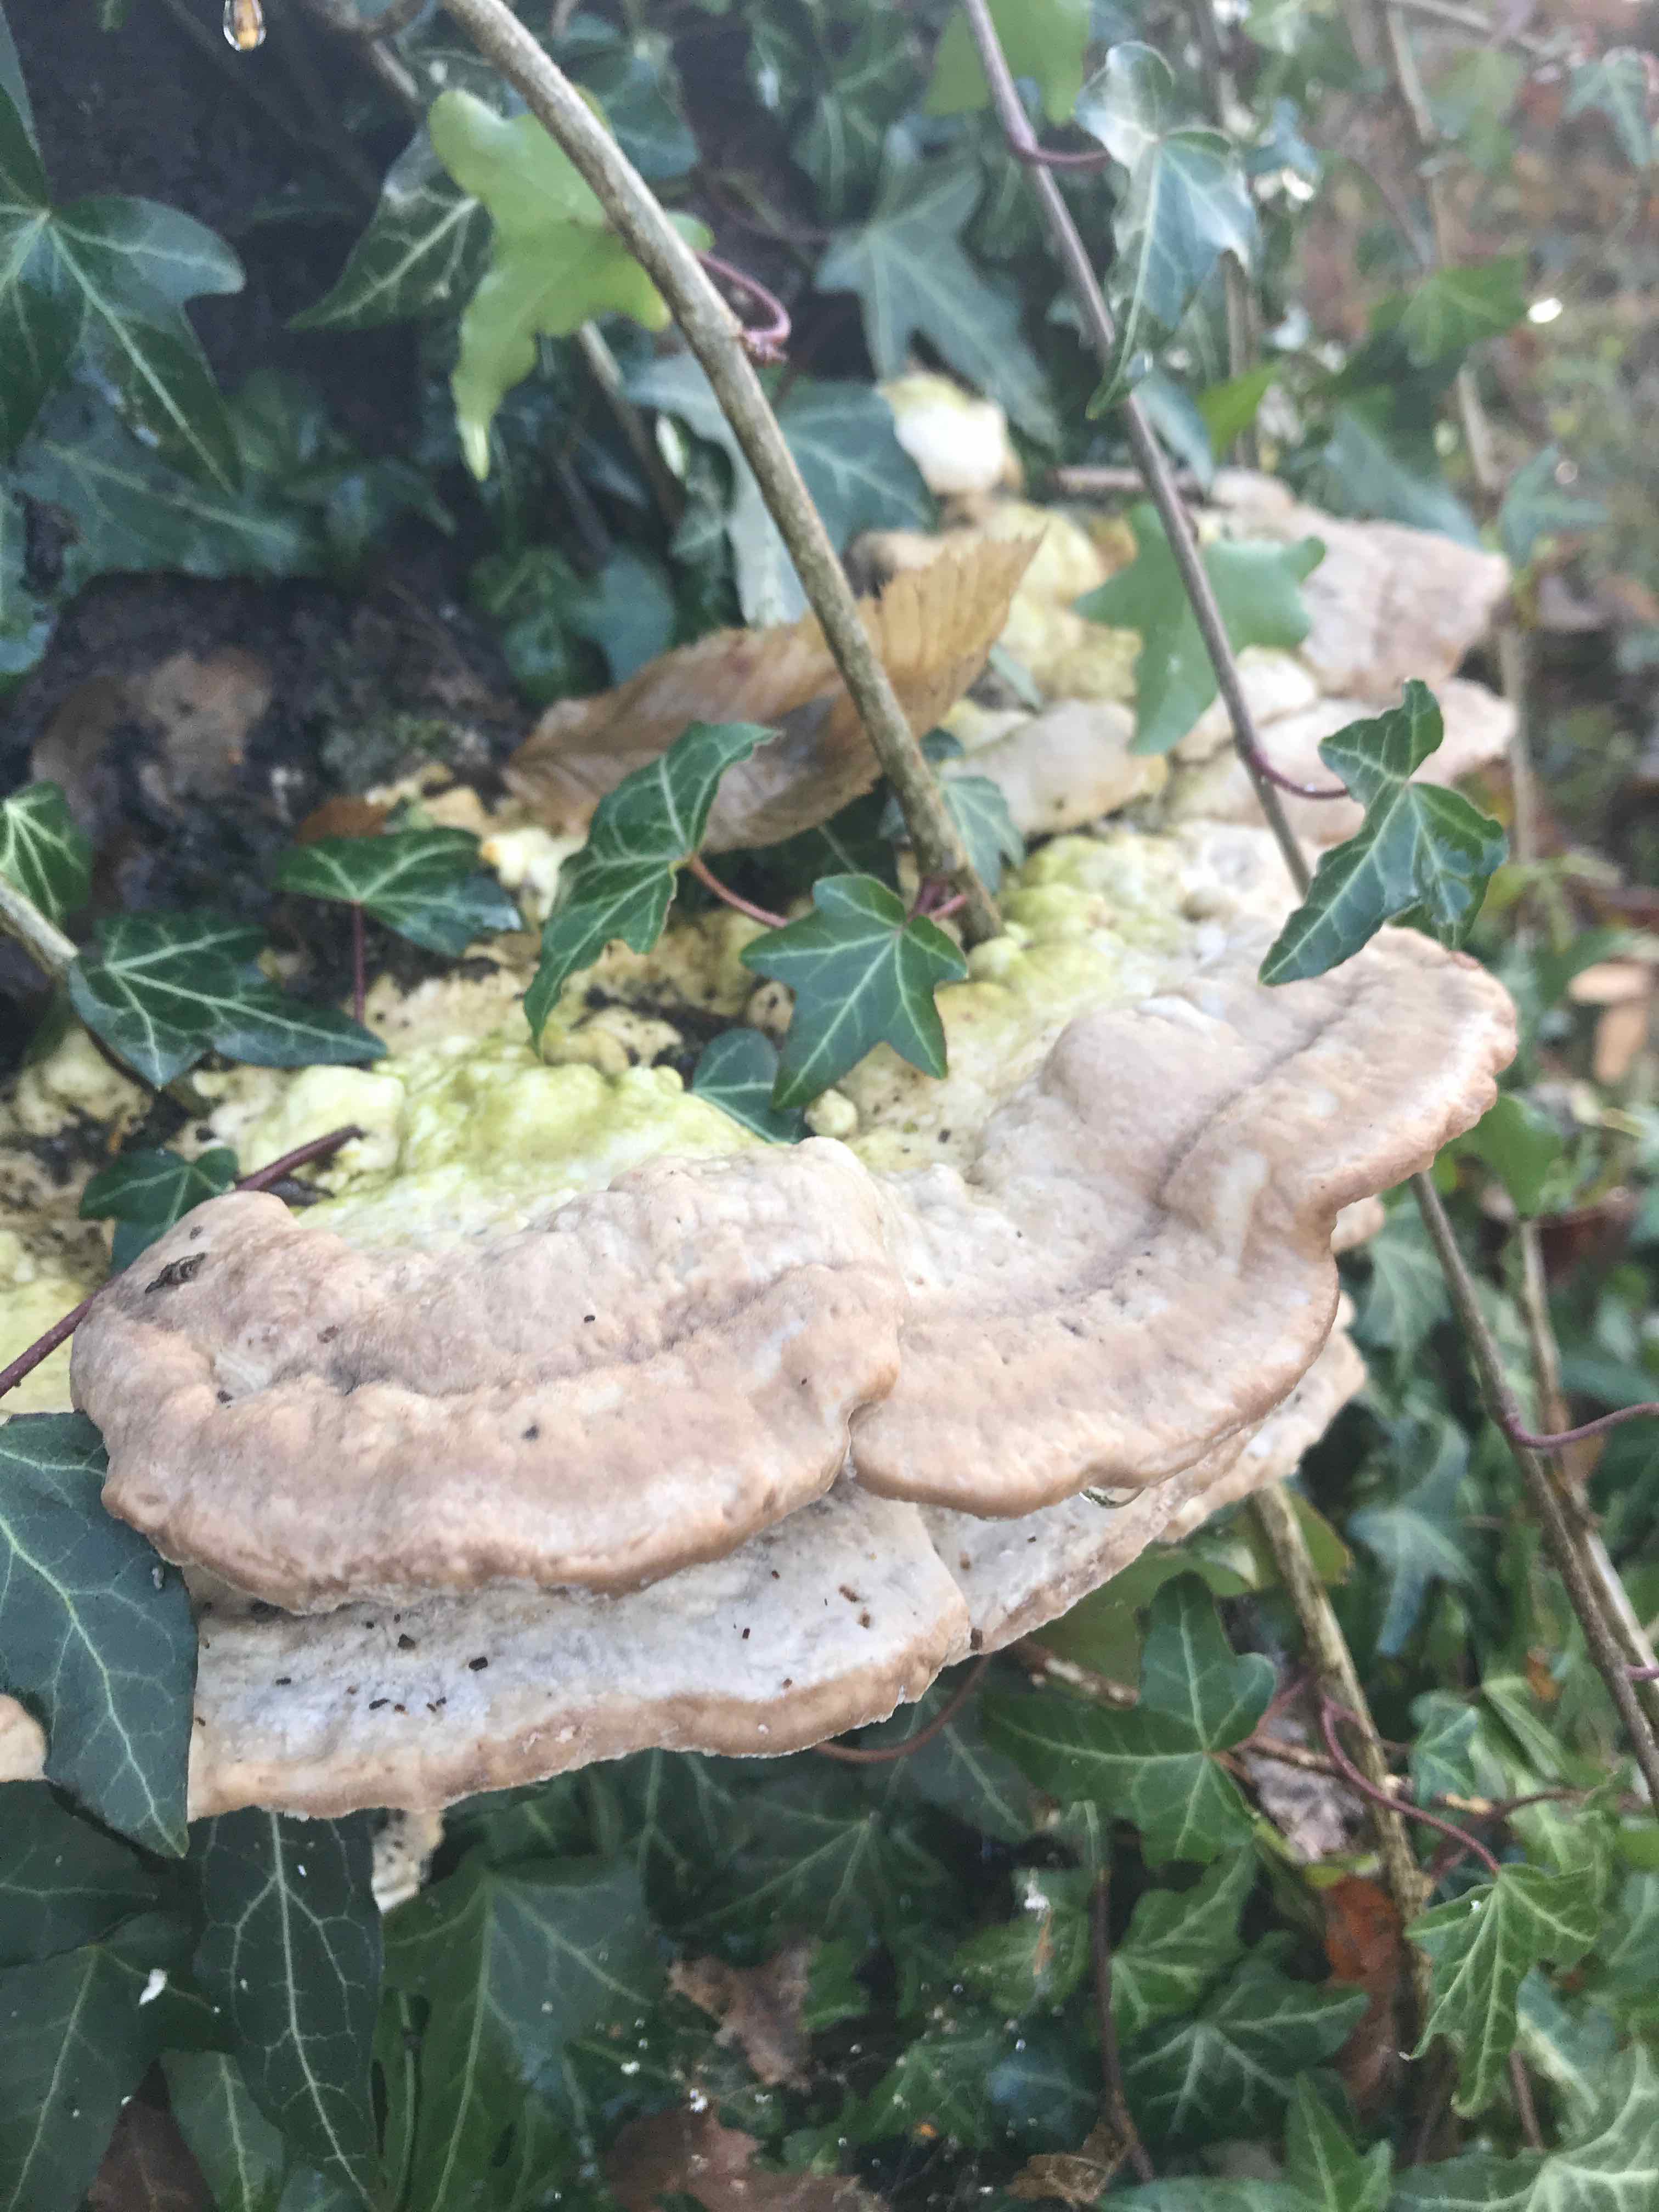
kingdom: Fungi
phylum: Basidiomycota
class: Agaricomycetes
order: Polyporales
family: Polyporaceae
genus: Trametes
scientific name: Trametes gibbosa
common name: puklet læderporesvamp
